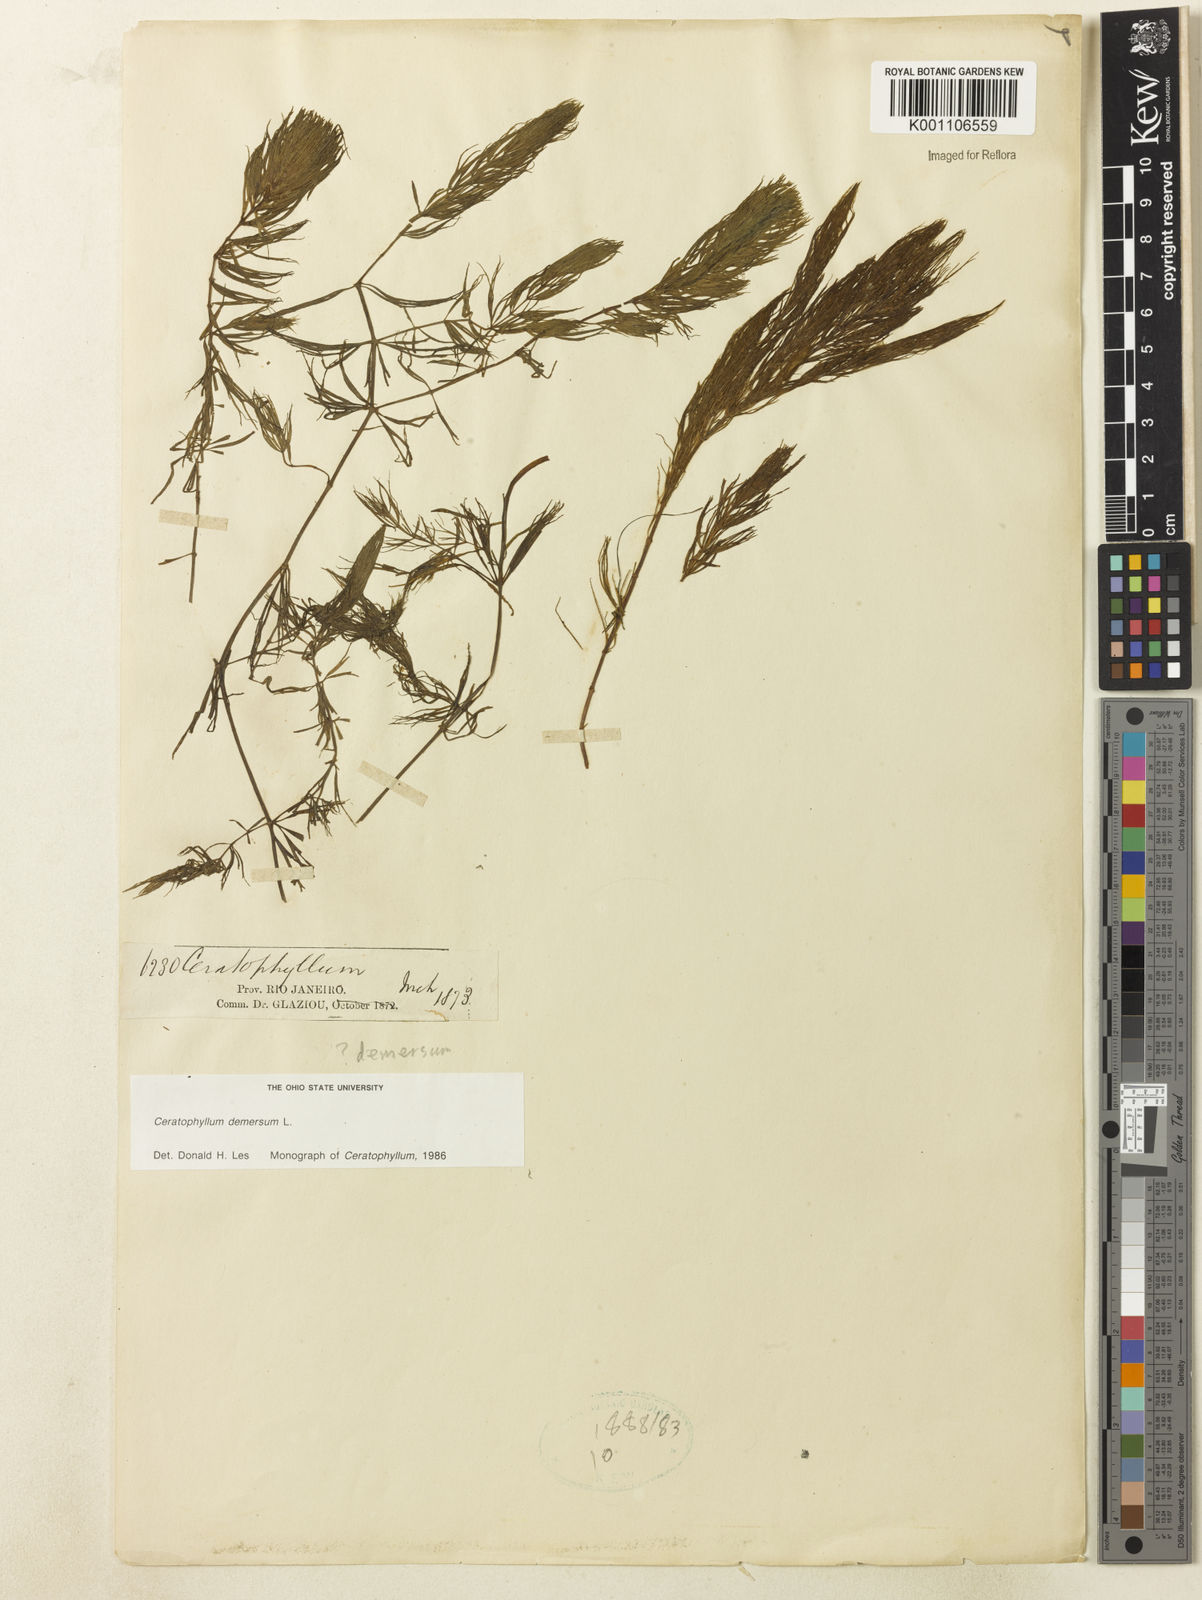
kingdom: Plantae
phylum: Tracheophyta
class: Magnoliopsida
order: Ceratophyllales
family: Ceratophyllaceae
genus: Ceratophyllum
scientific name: Ceratophyllum demersum
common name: Rigid hornwort
